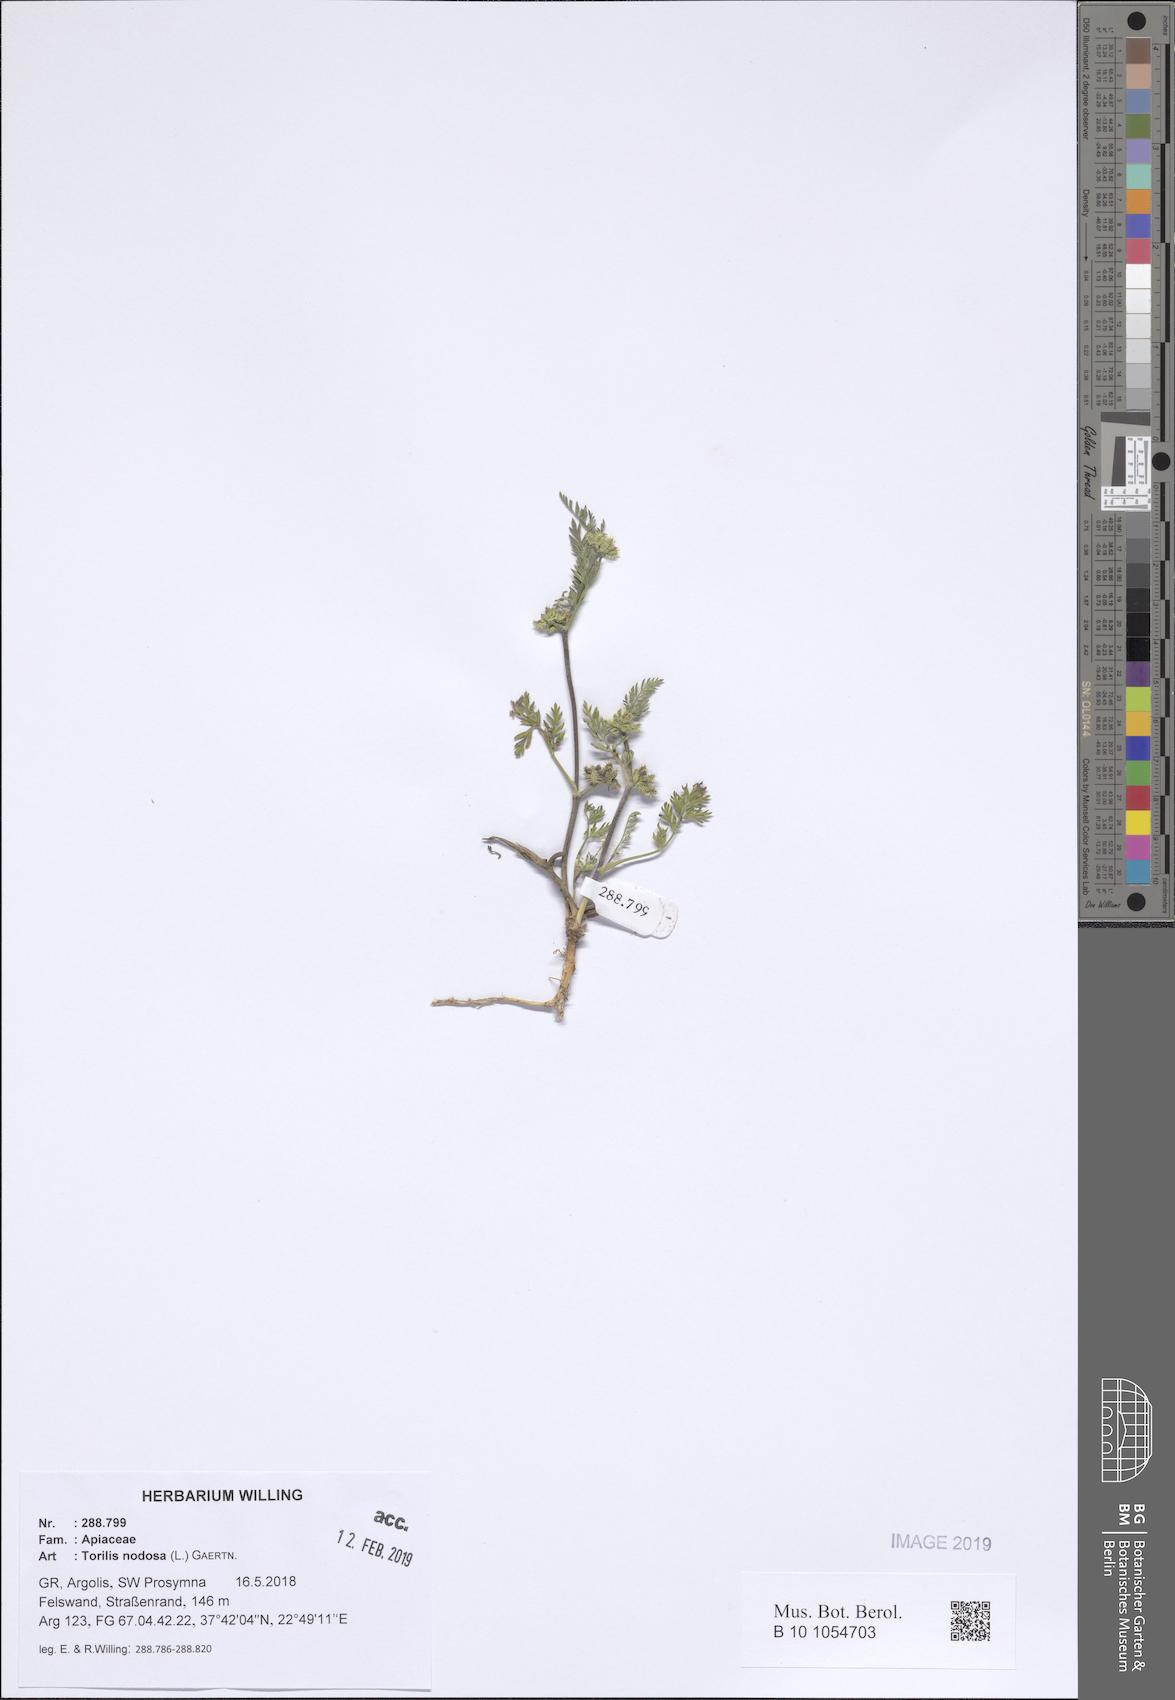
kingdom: Plantae
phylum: Tracheophyta
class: Magnoliopsida
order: Apiales
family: Apiaceae
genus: Torilis
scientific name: Torilis nodosa
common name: Knotted hedge-parsley
